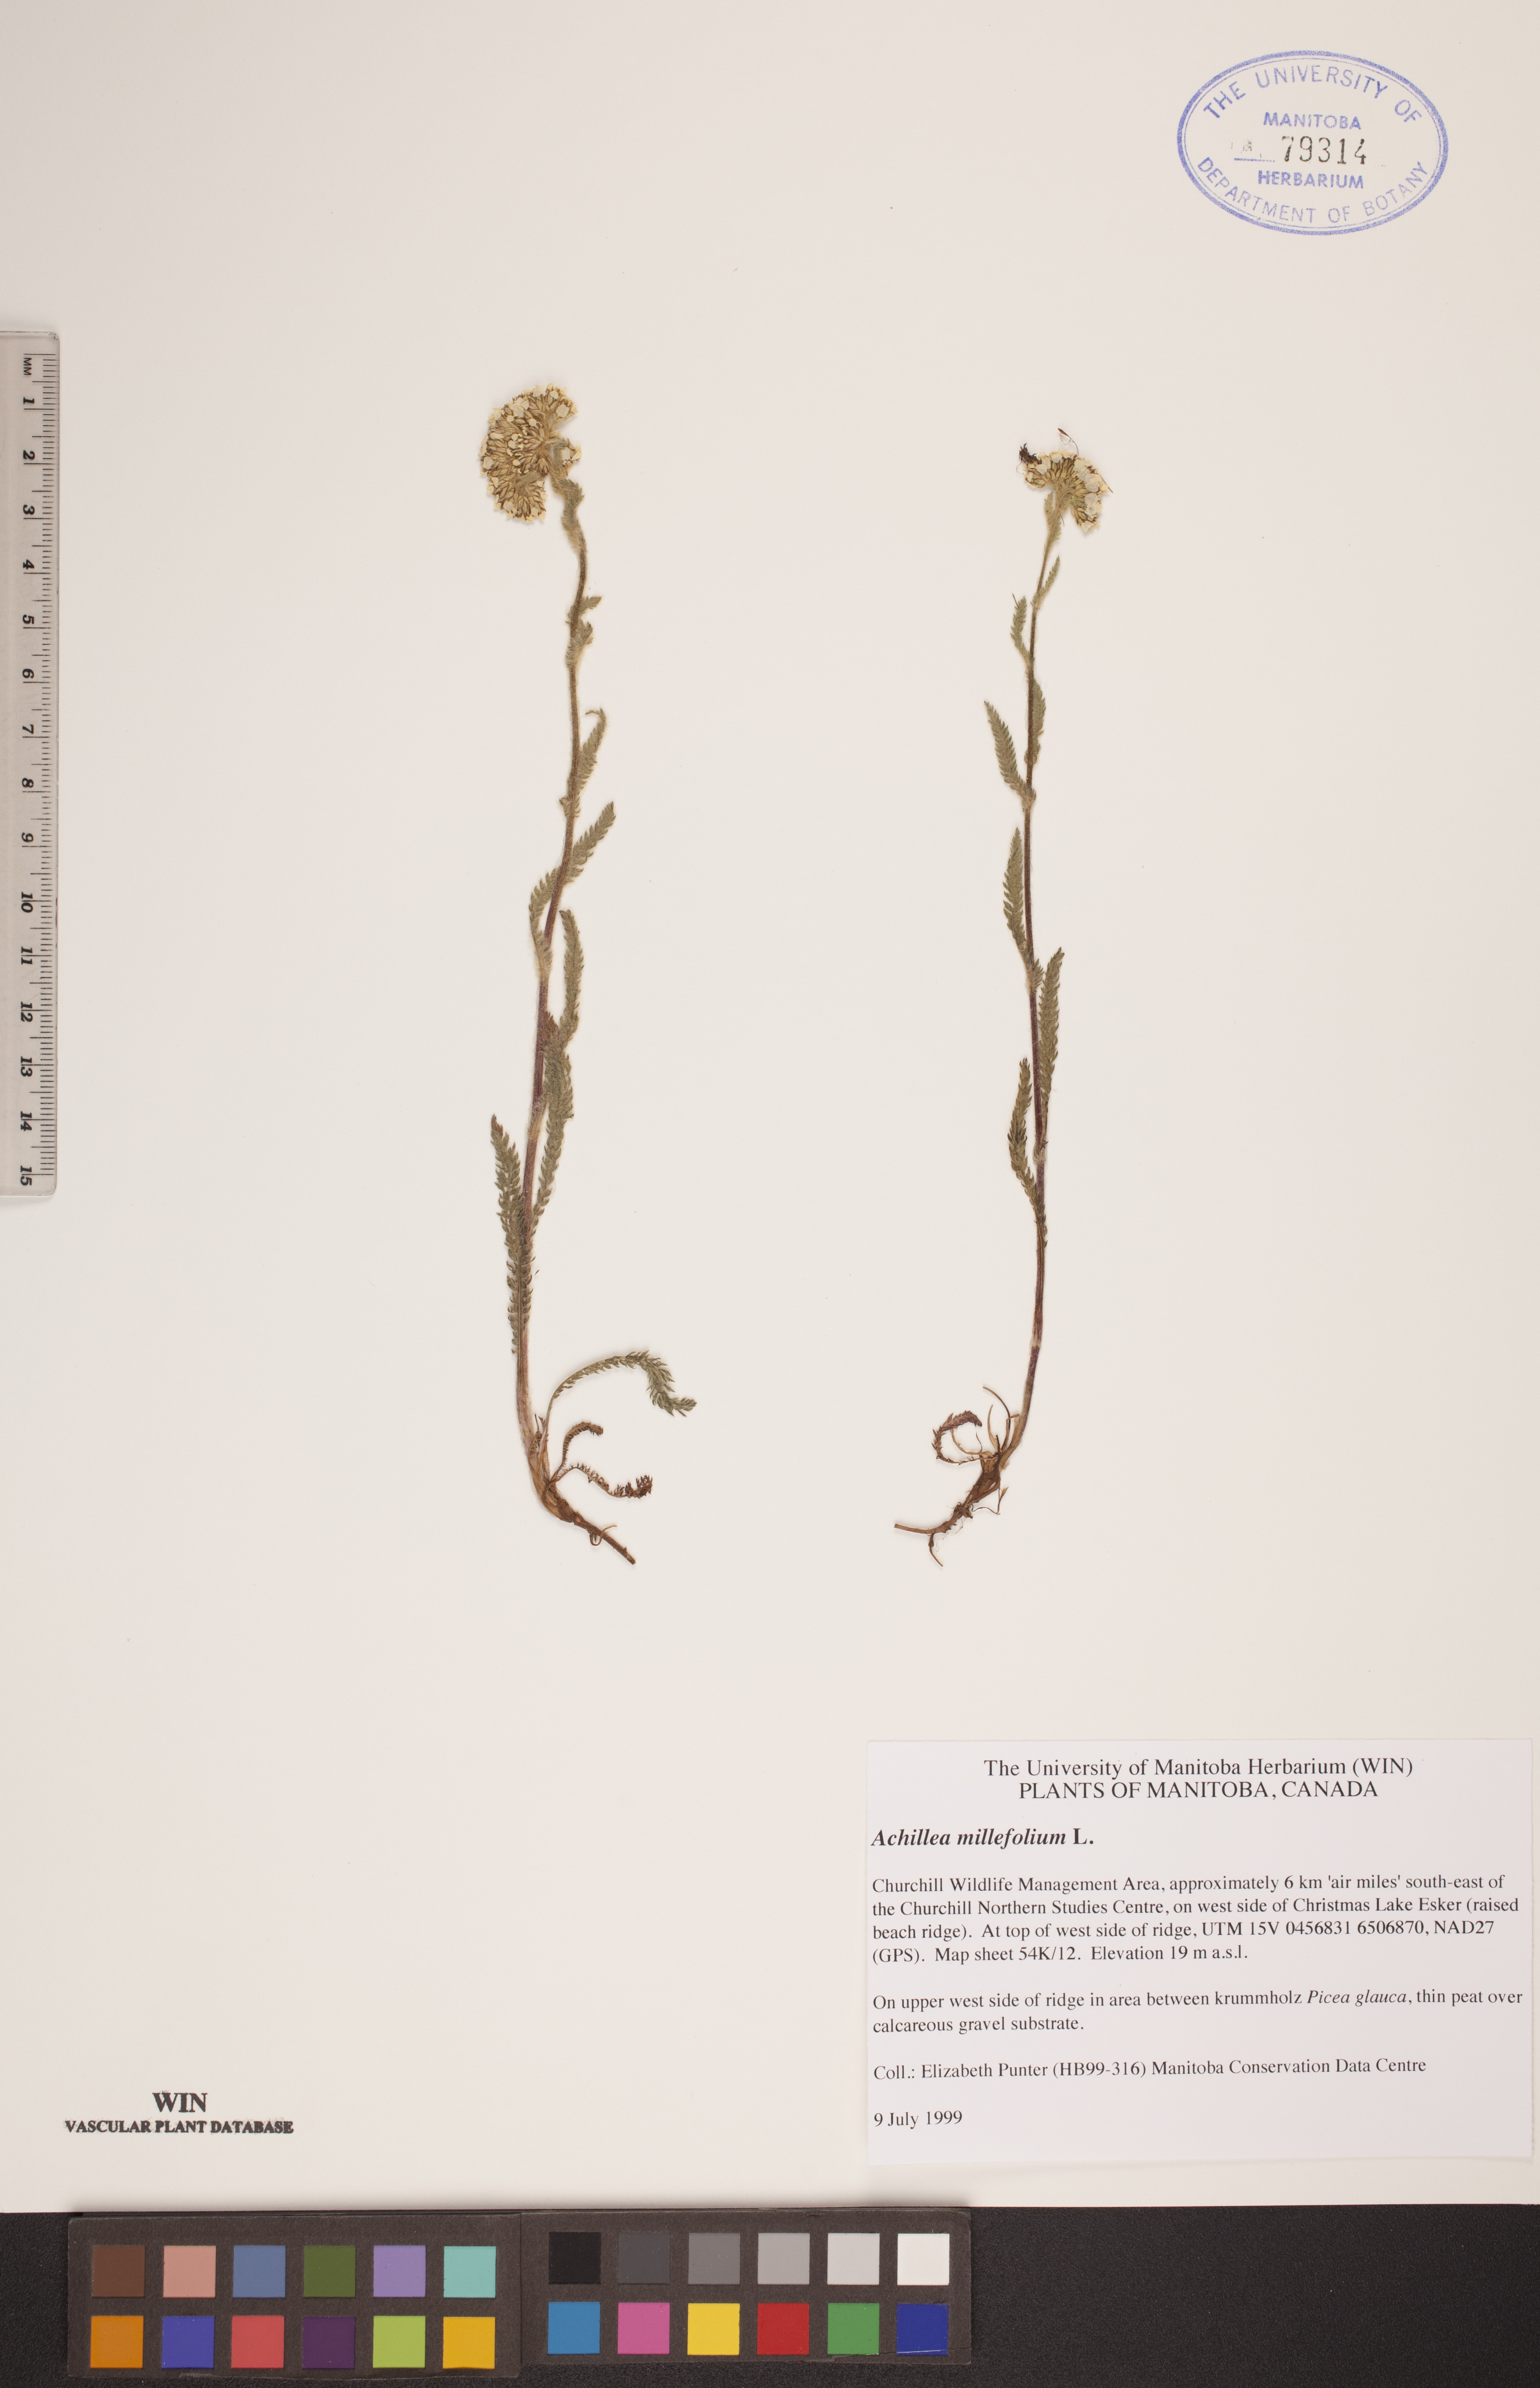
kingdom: Plantae
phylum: Tracheophyta
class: Magnoliopsida
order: Asterales
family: Asteraceae
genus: Achillea
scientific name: Achillea millefolium
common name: Yarrow
